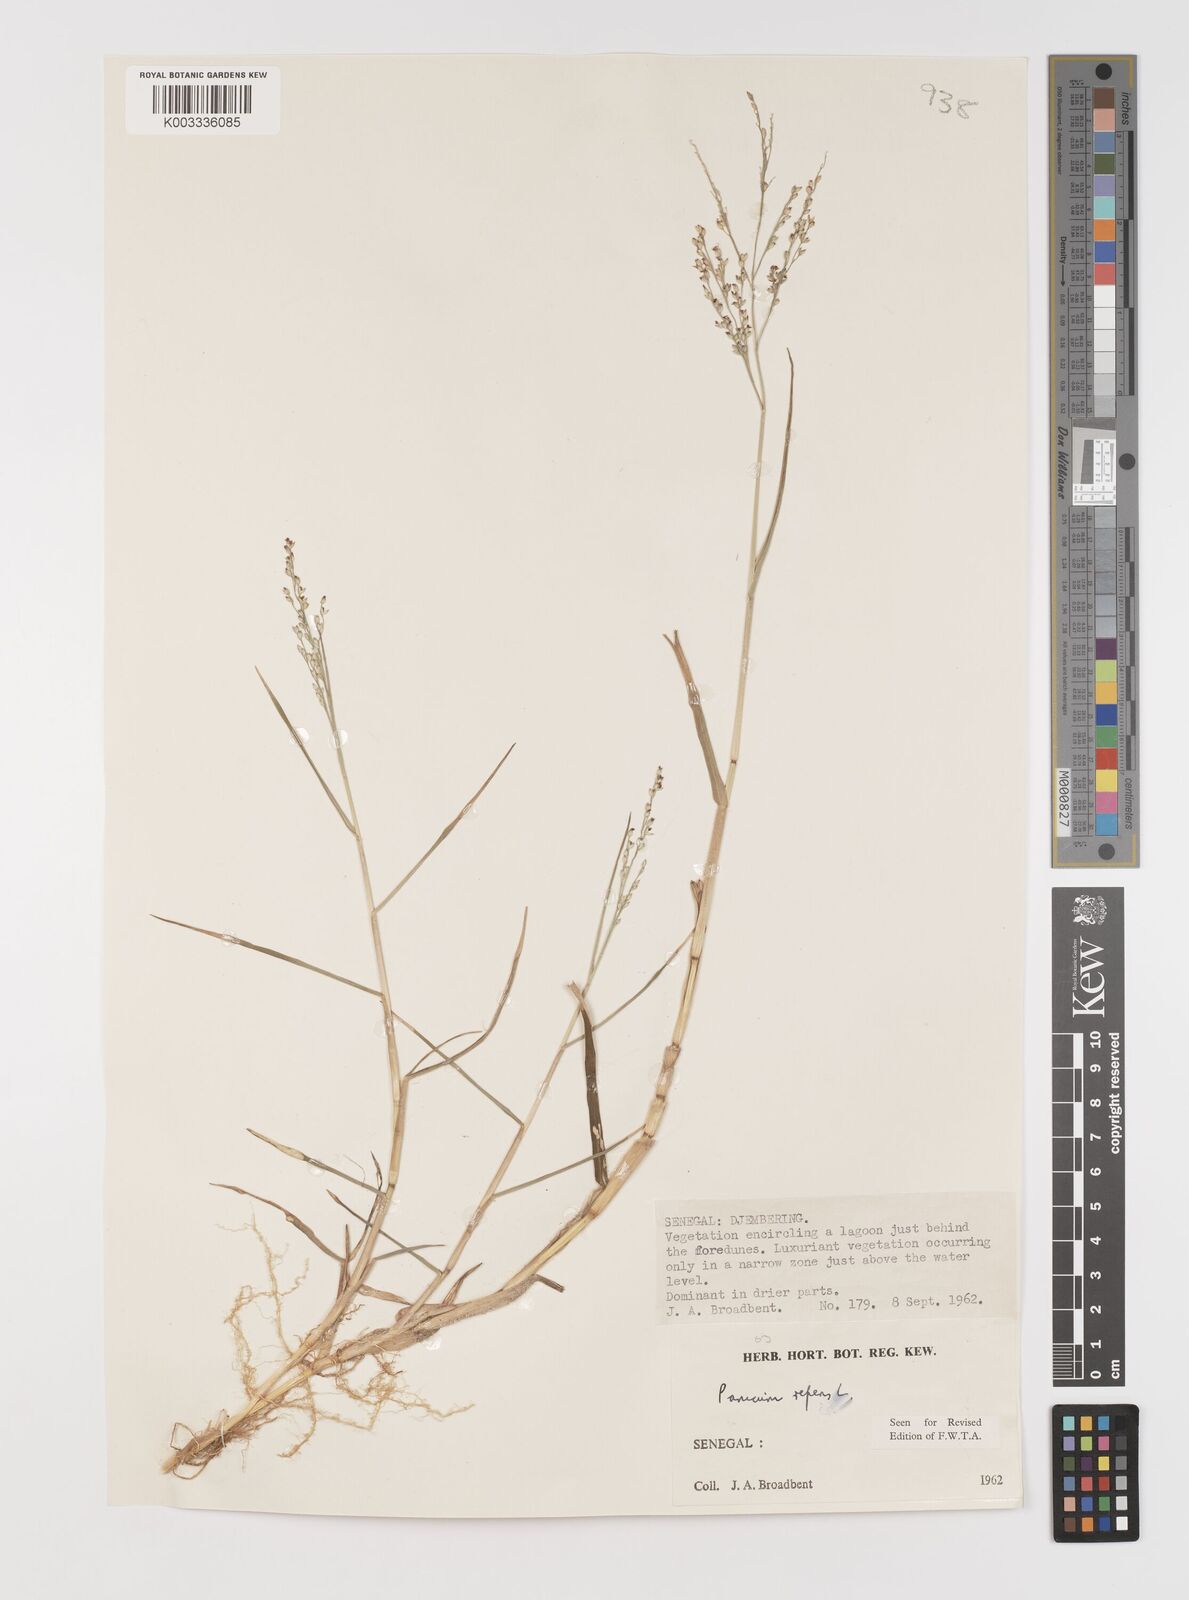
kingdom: Plantae
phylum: Tracheophyta
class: Liliopsida
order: Poales
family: Poaceae
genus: Panicum
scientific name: Panicum repens
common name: Torpedo grass
